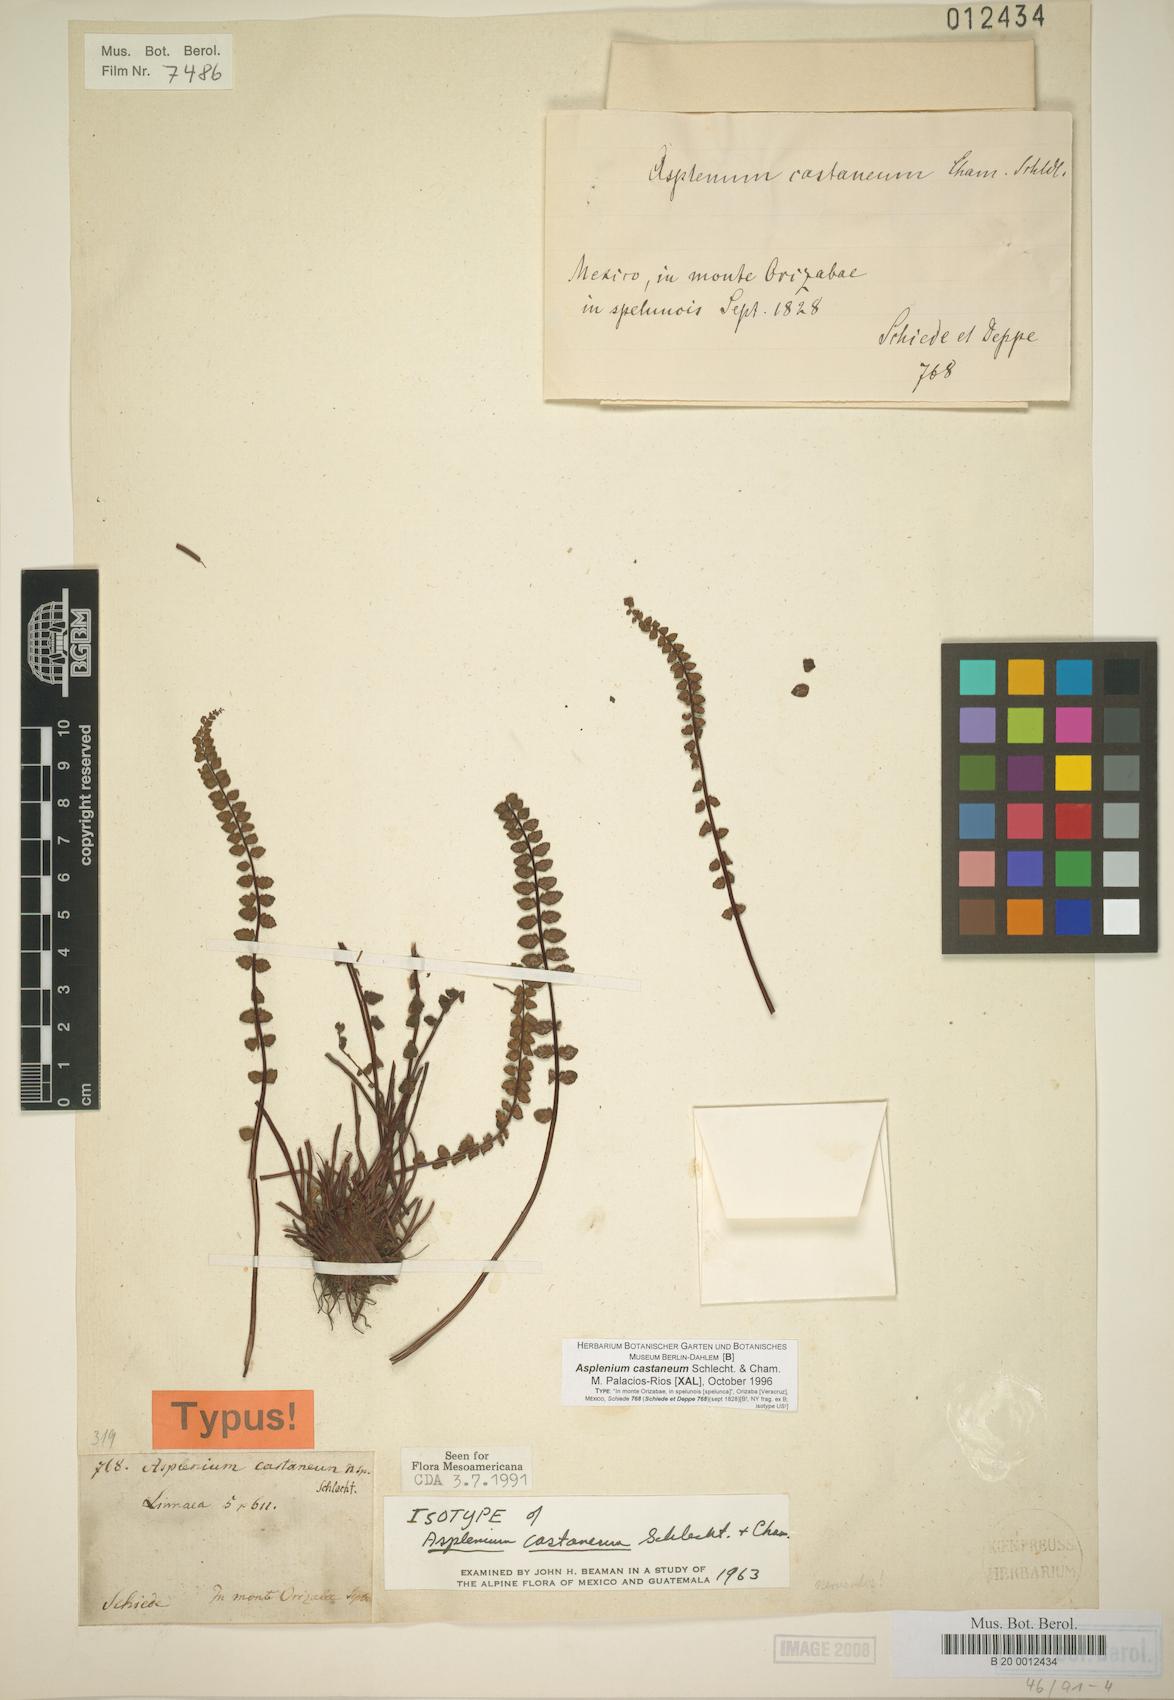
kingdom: Plantae
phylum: Tracheophyta
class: Polypodiopsida
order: Polypodiales
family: Aspleniaceae
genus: Asplenium
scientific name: Asplenium castaneum
